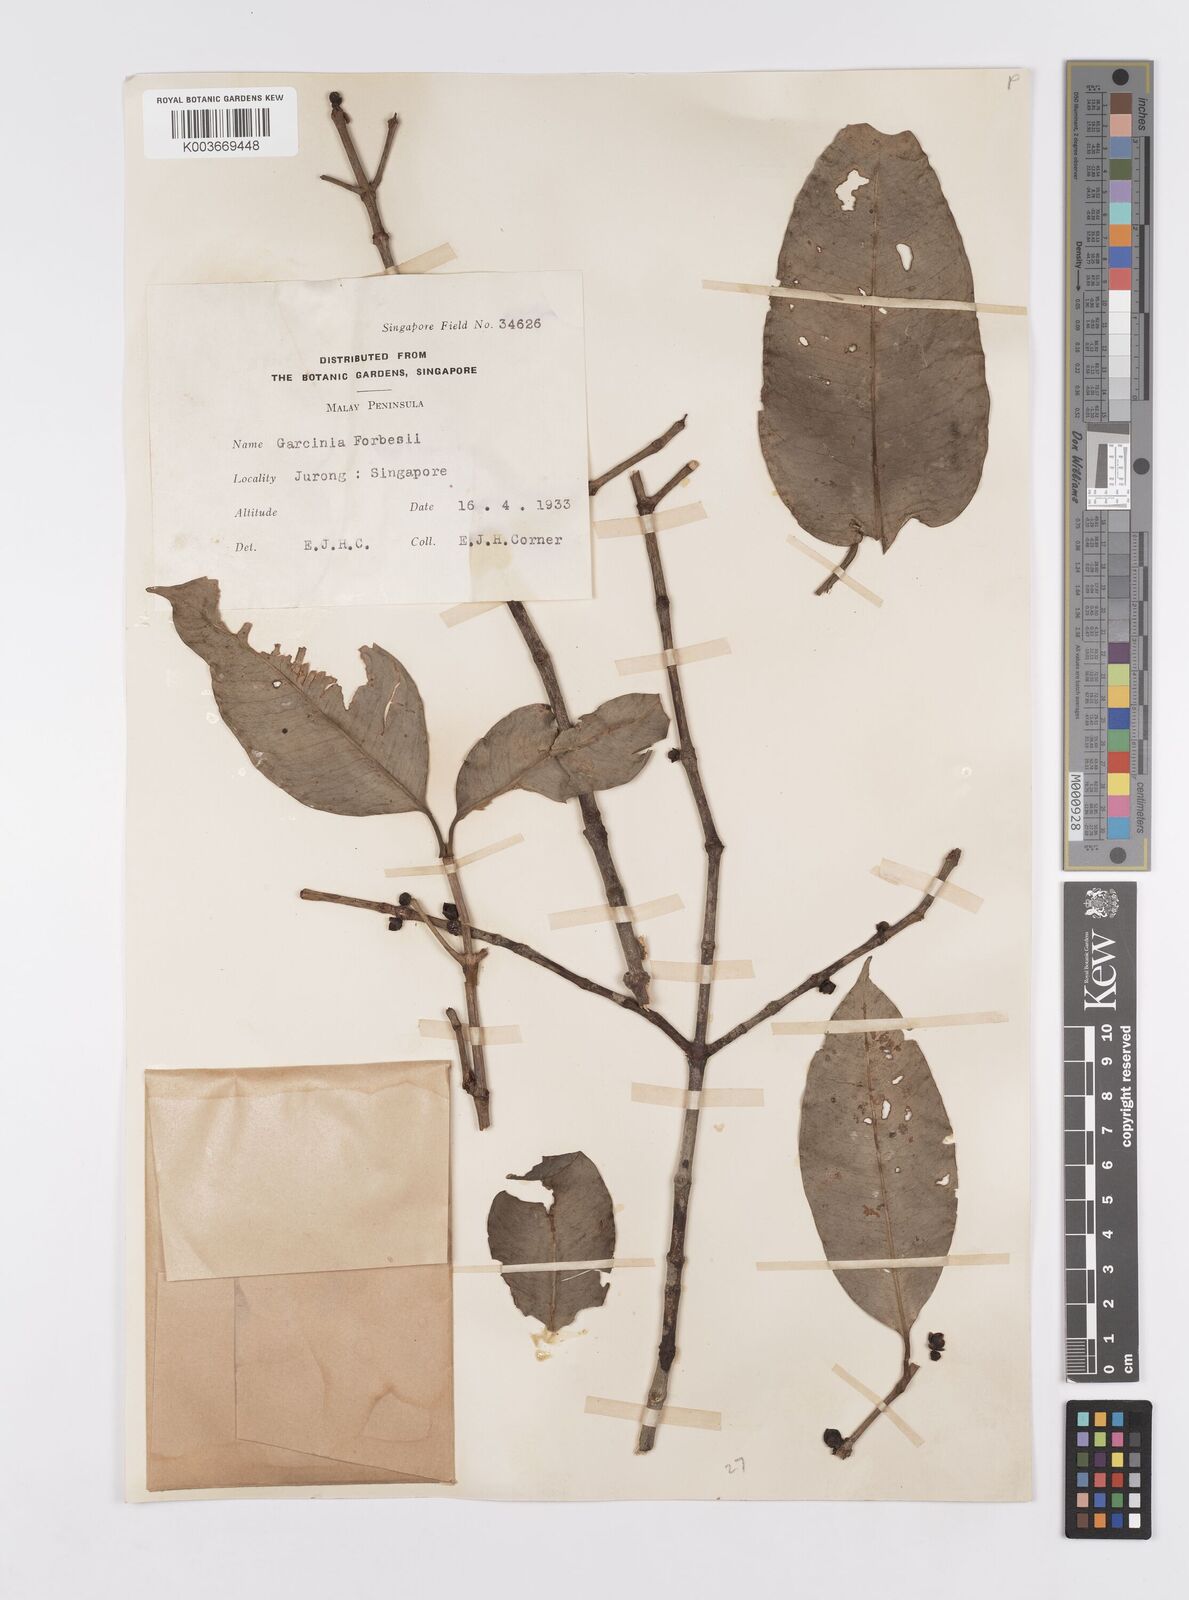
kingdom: Plantae
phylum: Tracheophyta
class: Magnoliopsida
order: Malpighiales
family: Clusiaceae
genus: Garcinia
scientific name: Garcinia forbesii
